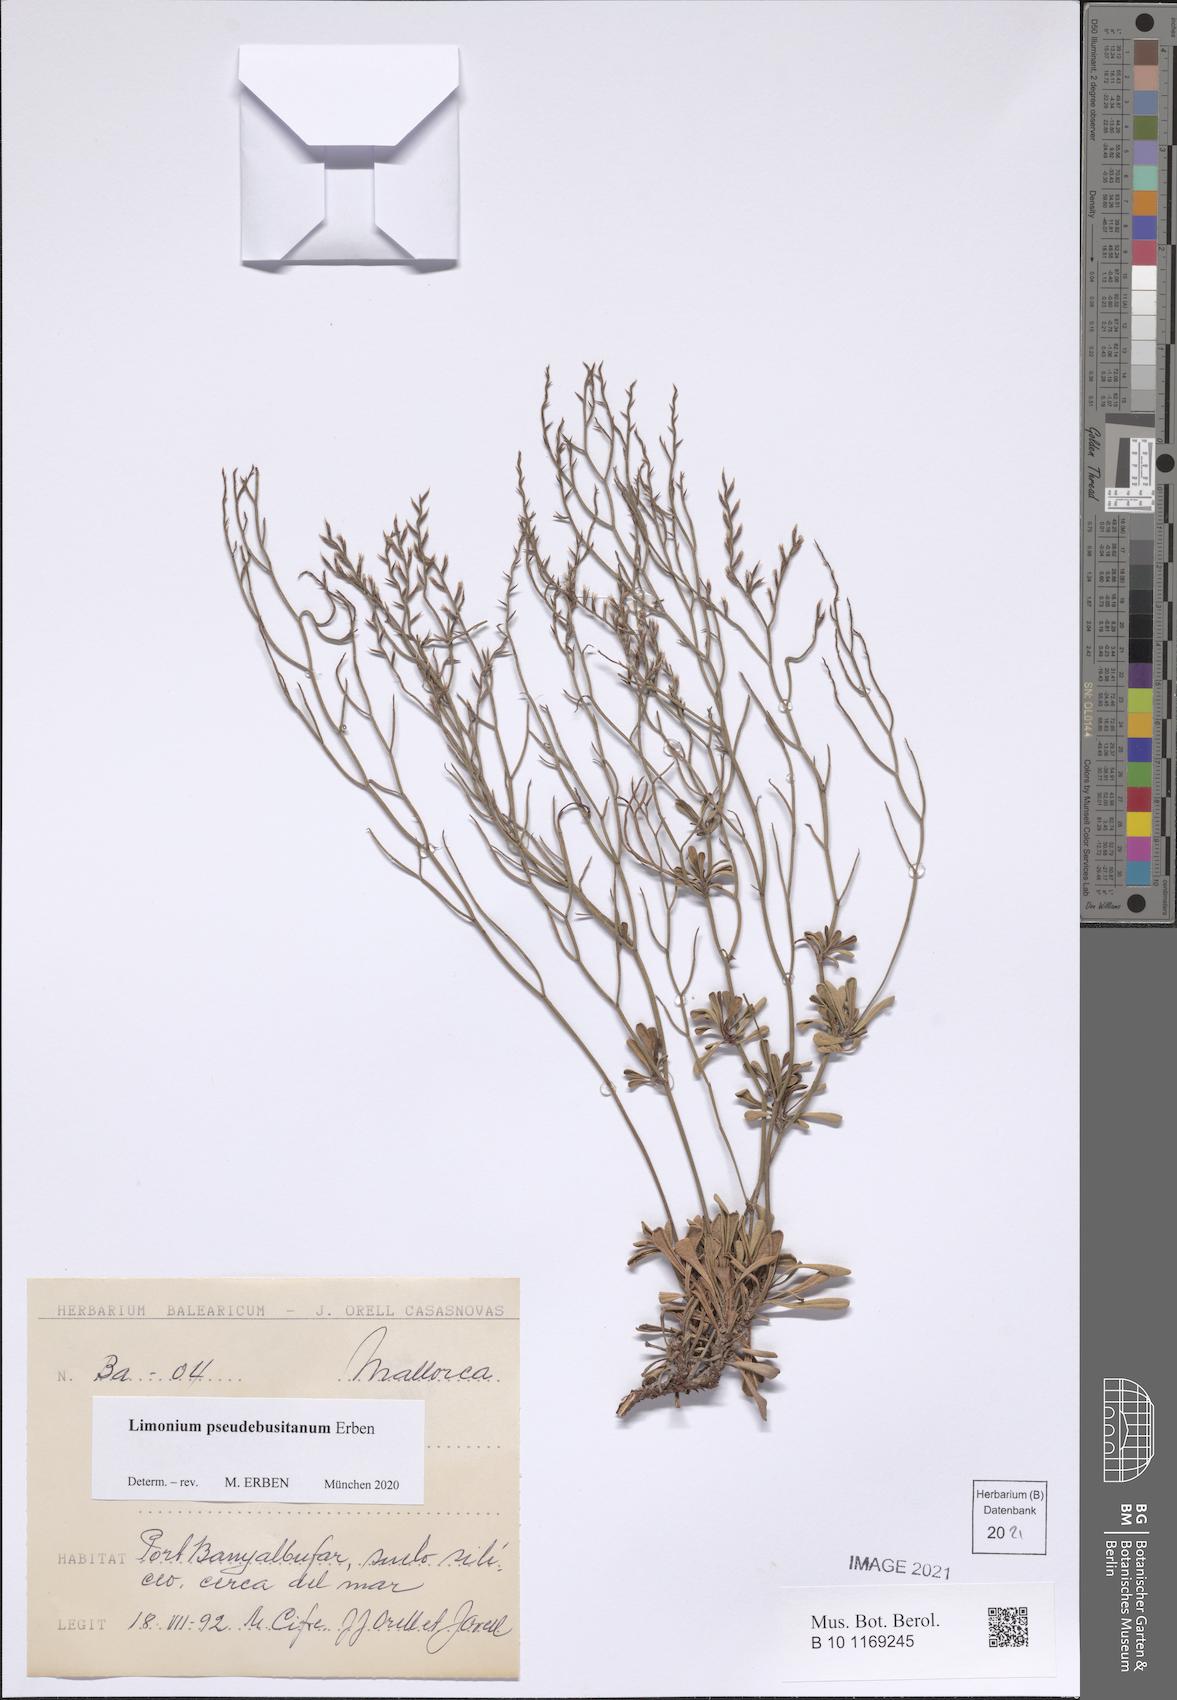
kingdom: Plantae
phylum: Tracheophyta
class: Magnoliopsida
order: Caryophyllales
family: Plumbaginaceae
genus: Limonium
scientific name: Limonium pseudebusitanum
